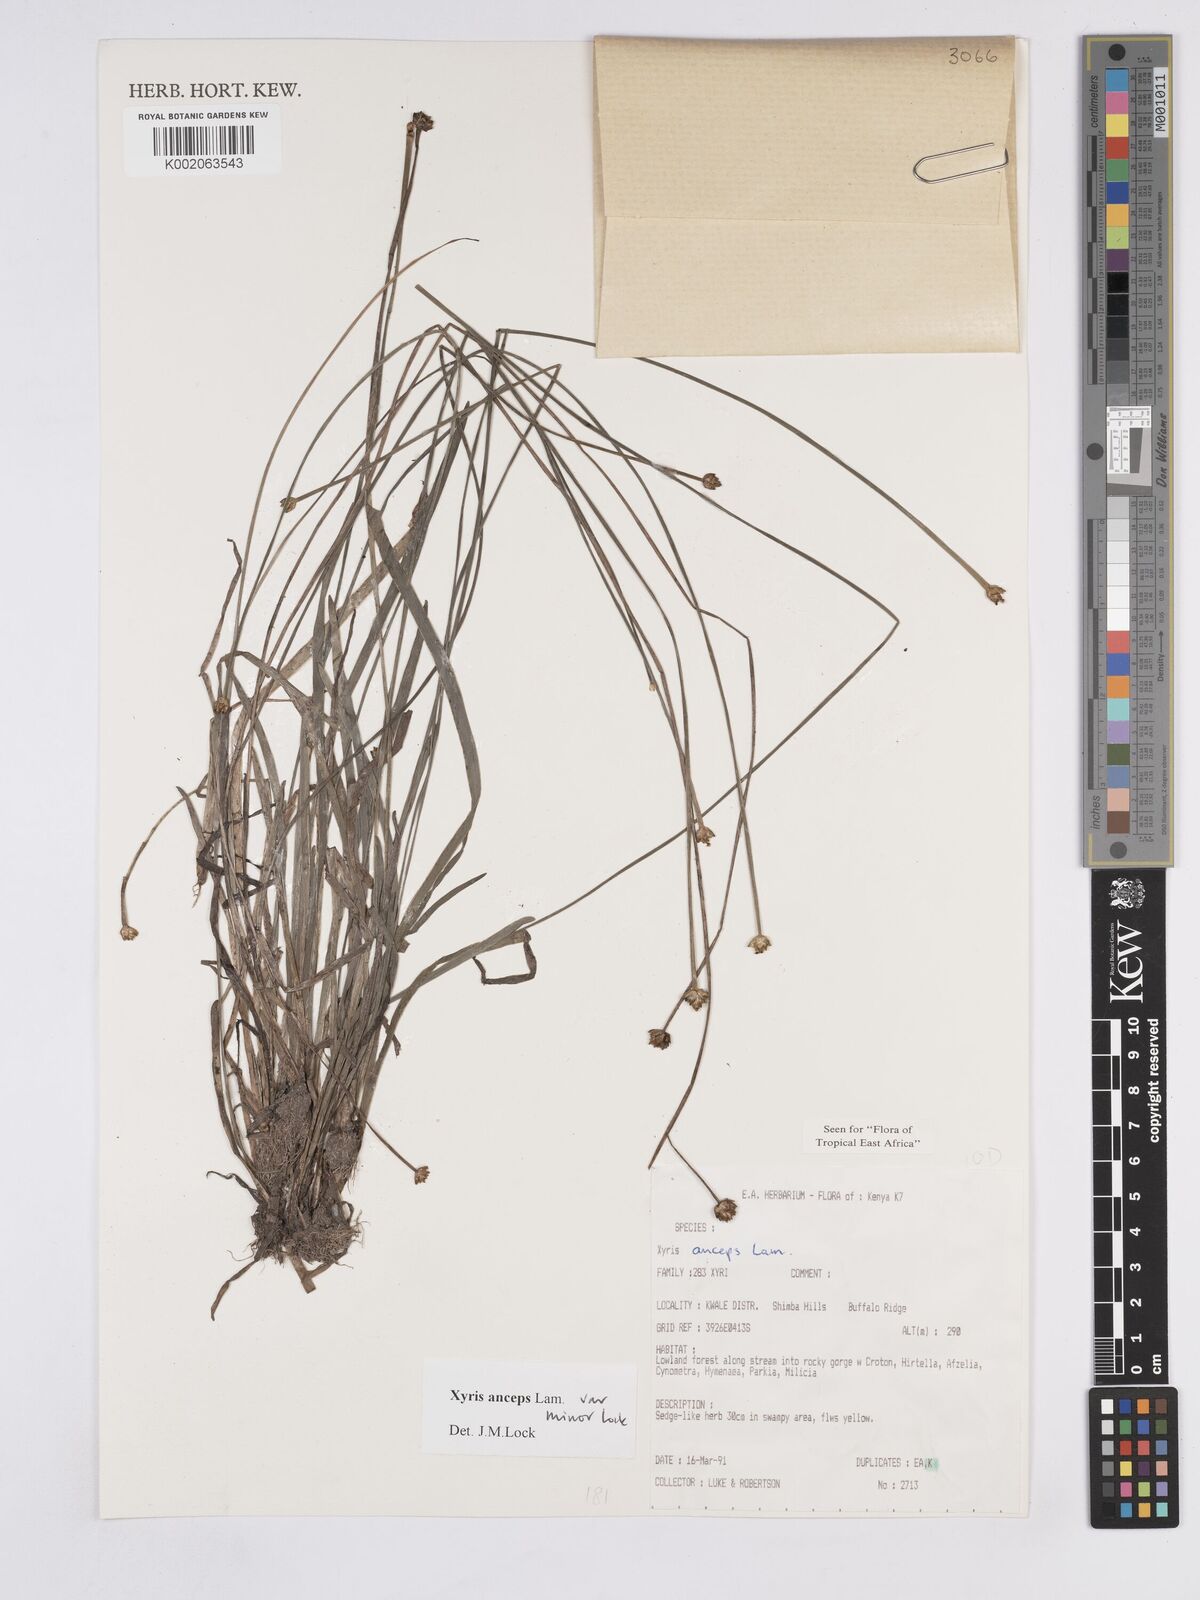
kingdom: Plantae
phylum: Tracheophyta
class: Liliopsida
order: Poales
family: Xyridaceae
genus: Xyris
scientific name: Xyris anceps
